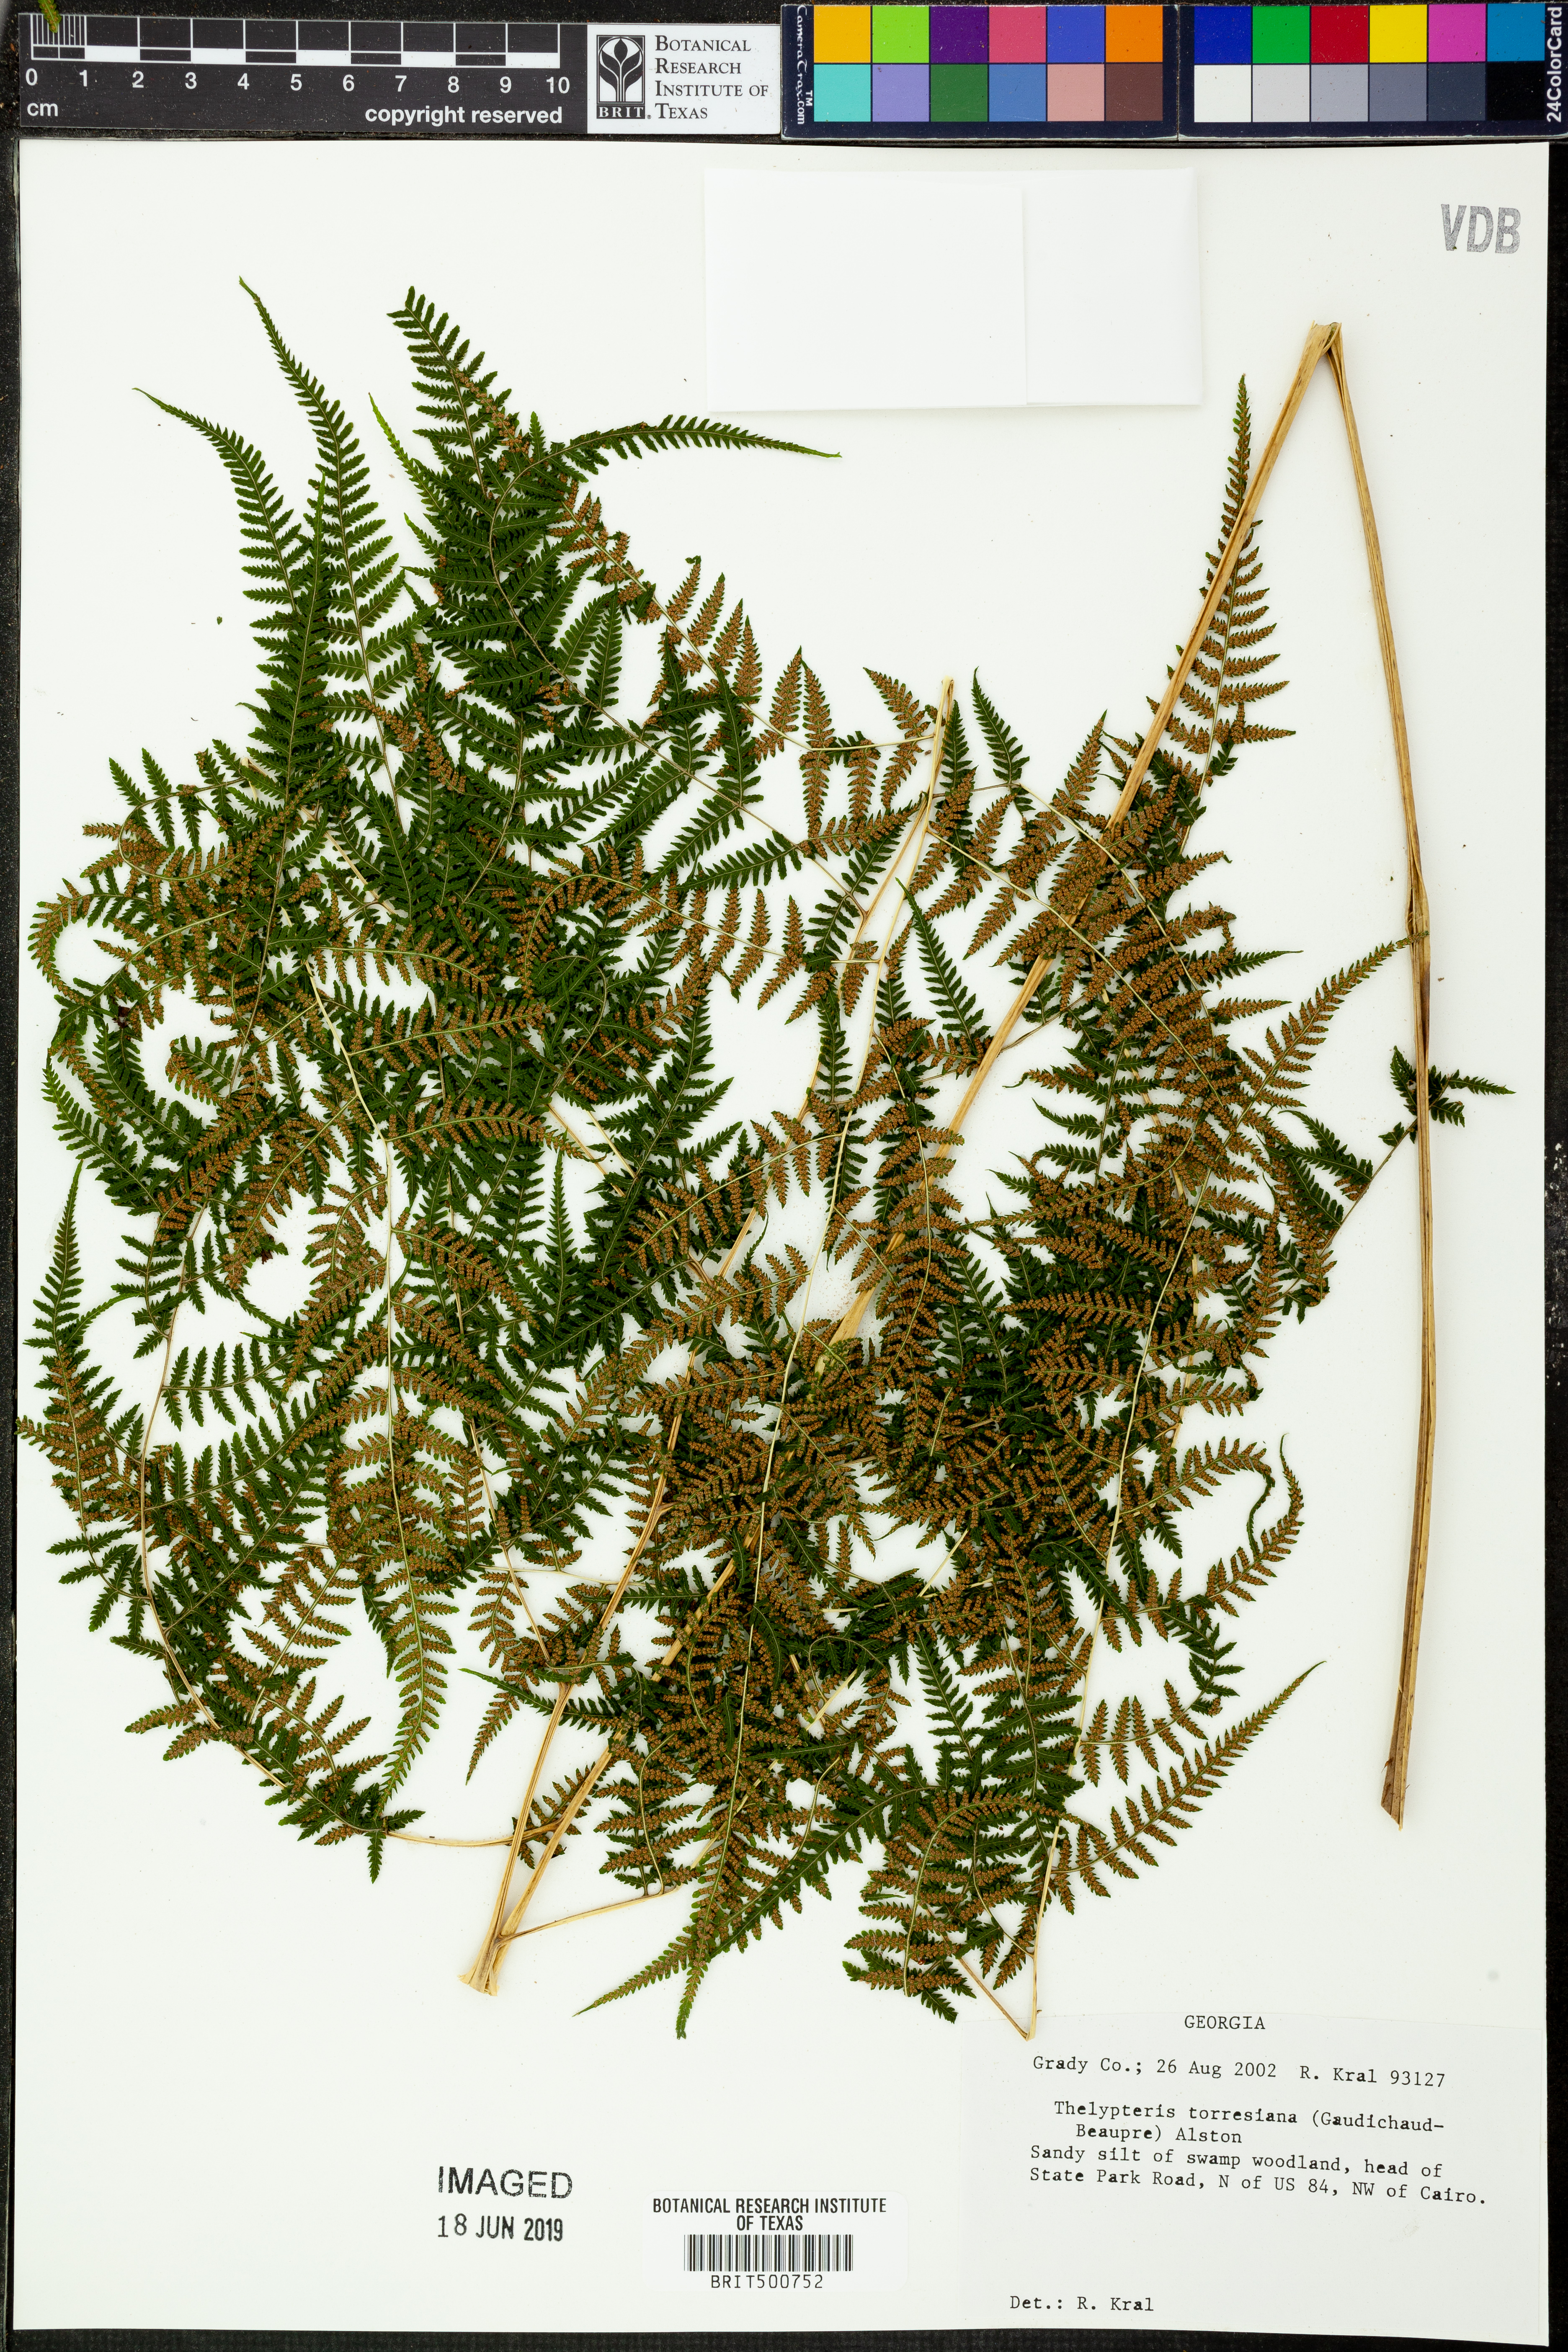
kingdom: Plantae
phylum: Tracheophyta
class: Polypodiopsida
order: Polypodiales
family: Thelypteridaceae
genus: Macrothelypteris
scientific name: Macrothelypteris torresiana
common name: Swordfern
